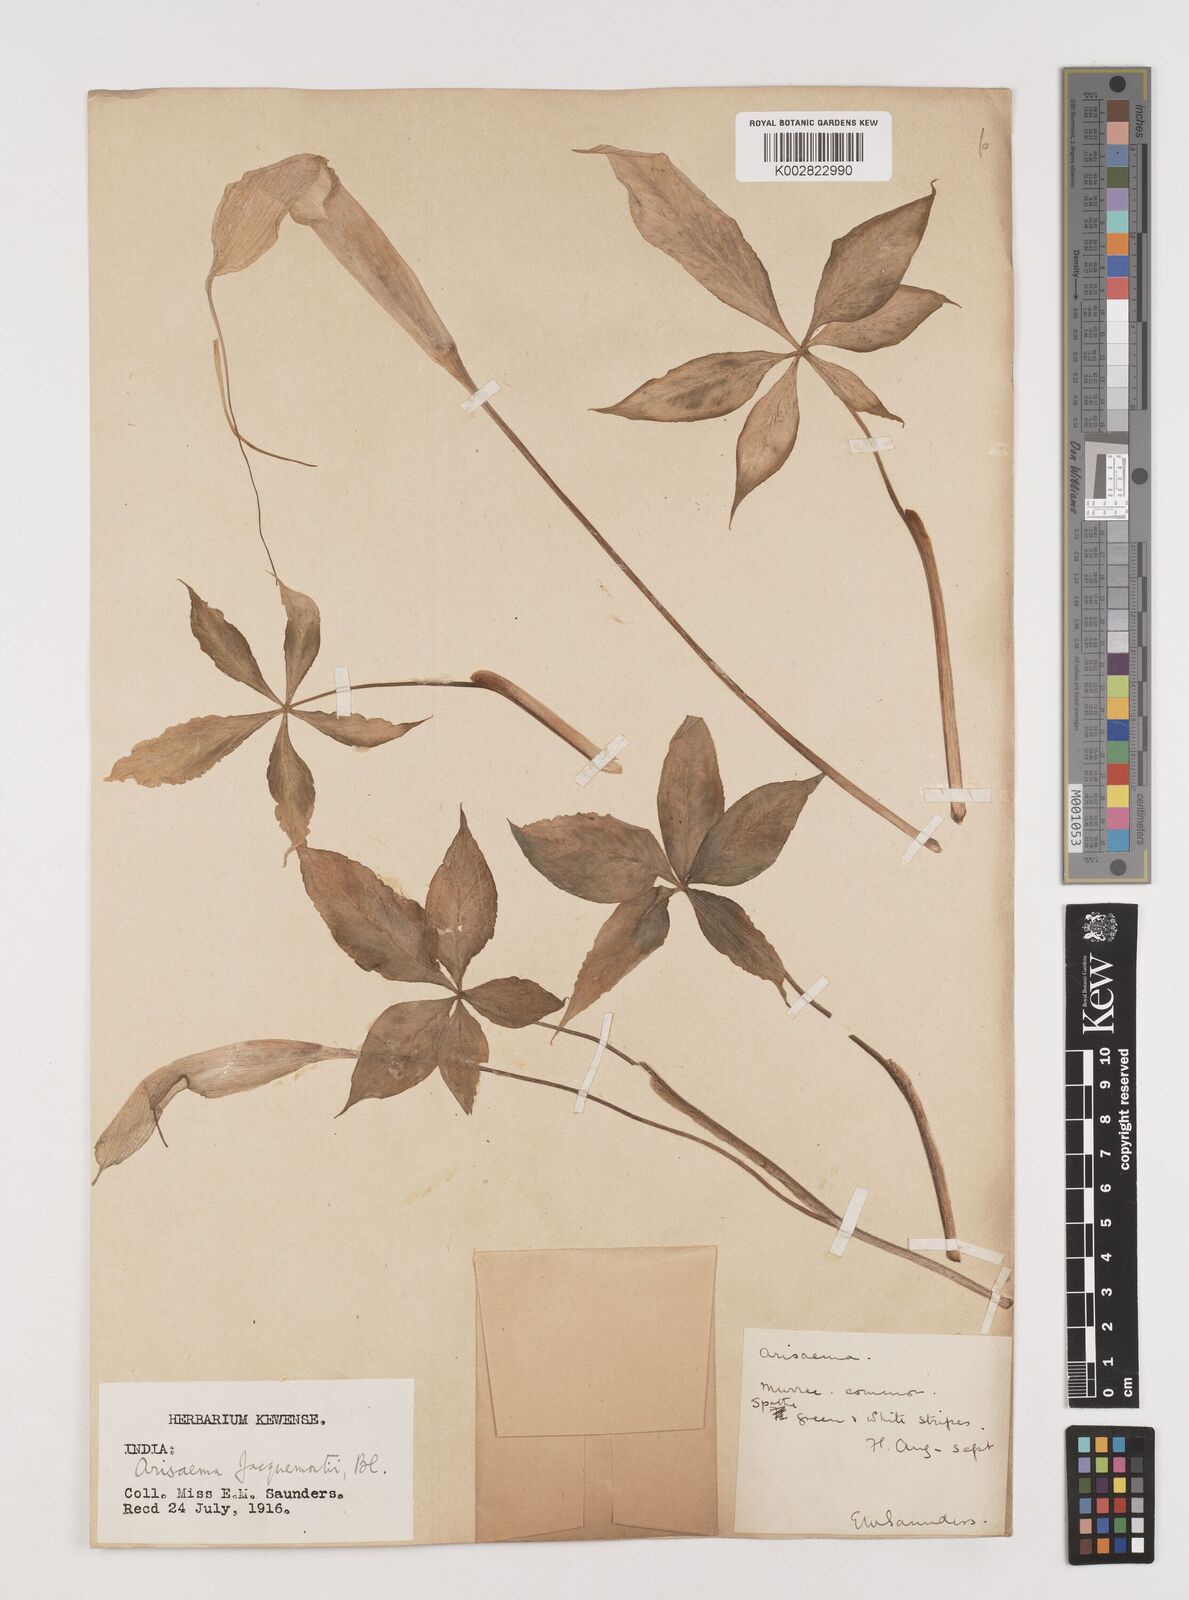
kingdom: Plantae
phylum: Tracheophyta
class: Liliopsida
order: Alismatales
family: Araceae
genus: Arisaema
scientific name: Arisaema jacquemontii
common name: Jacquemont's cobra-lily
